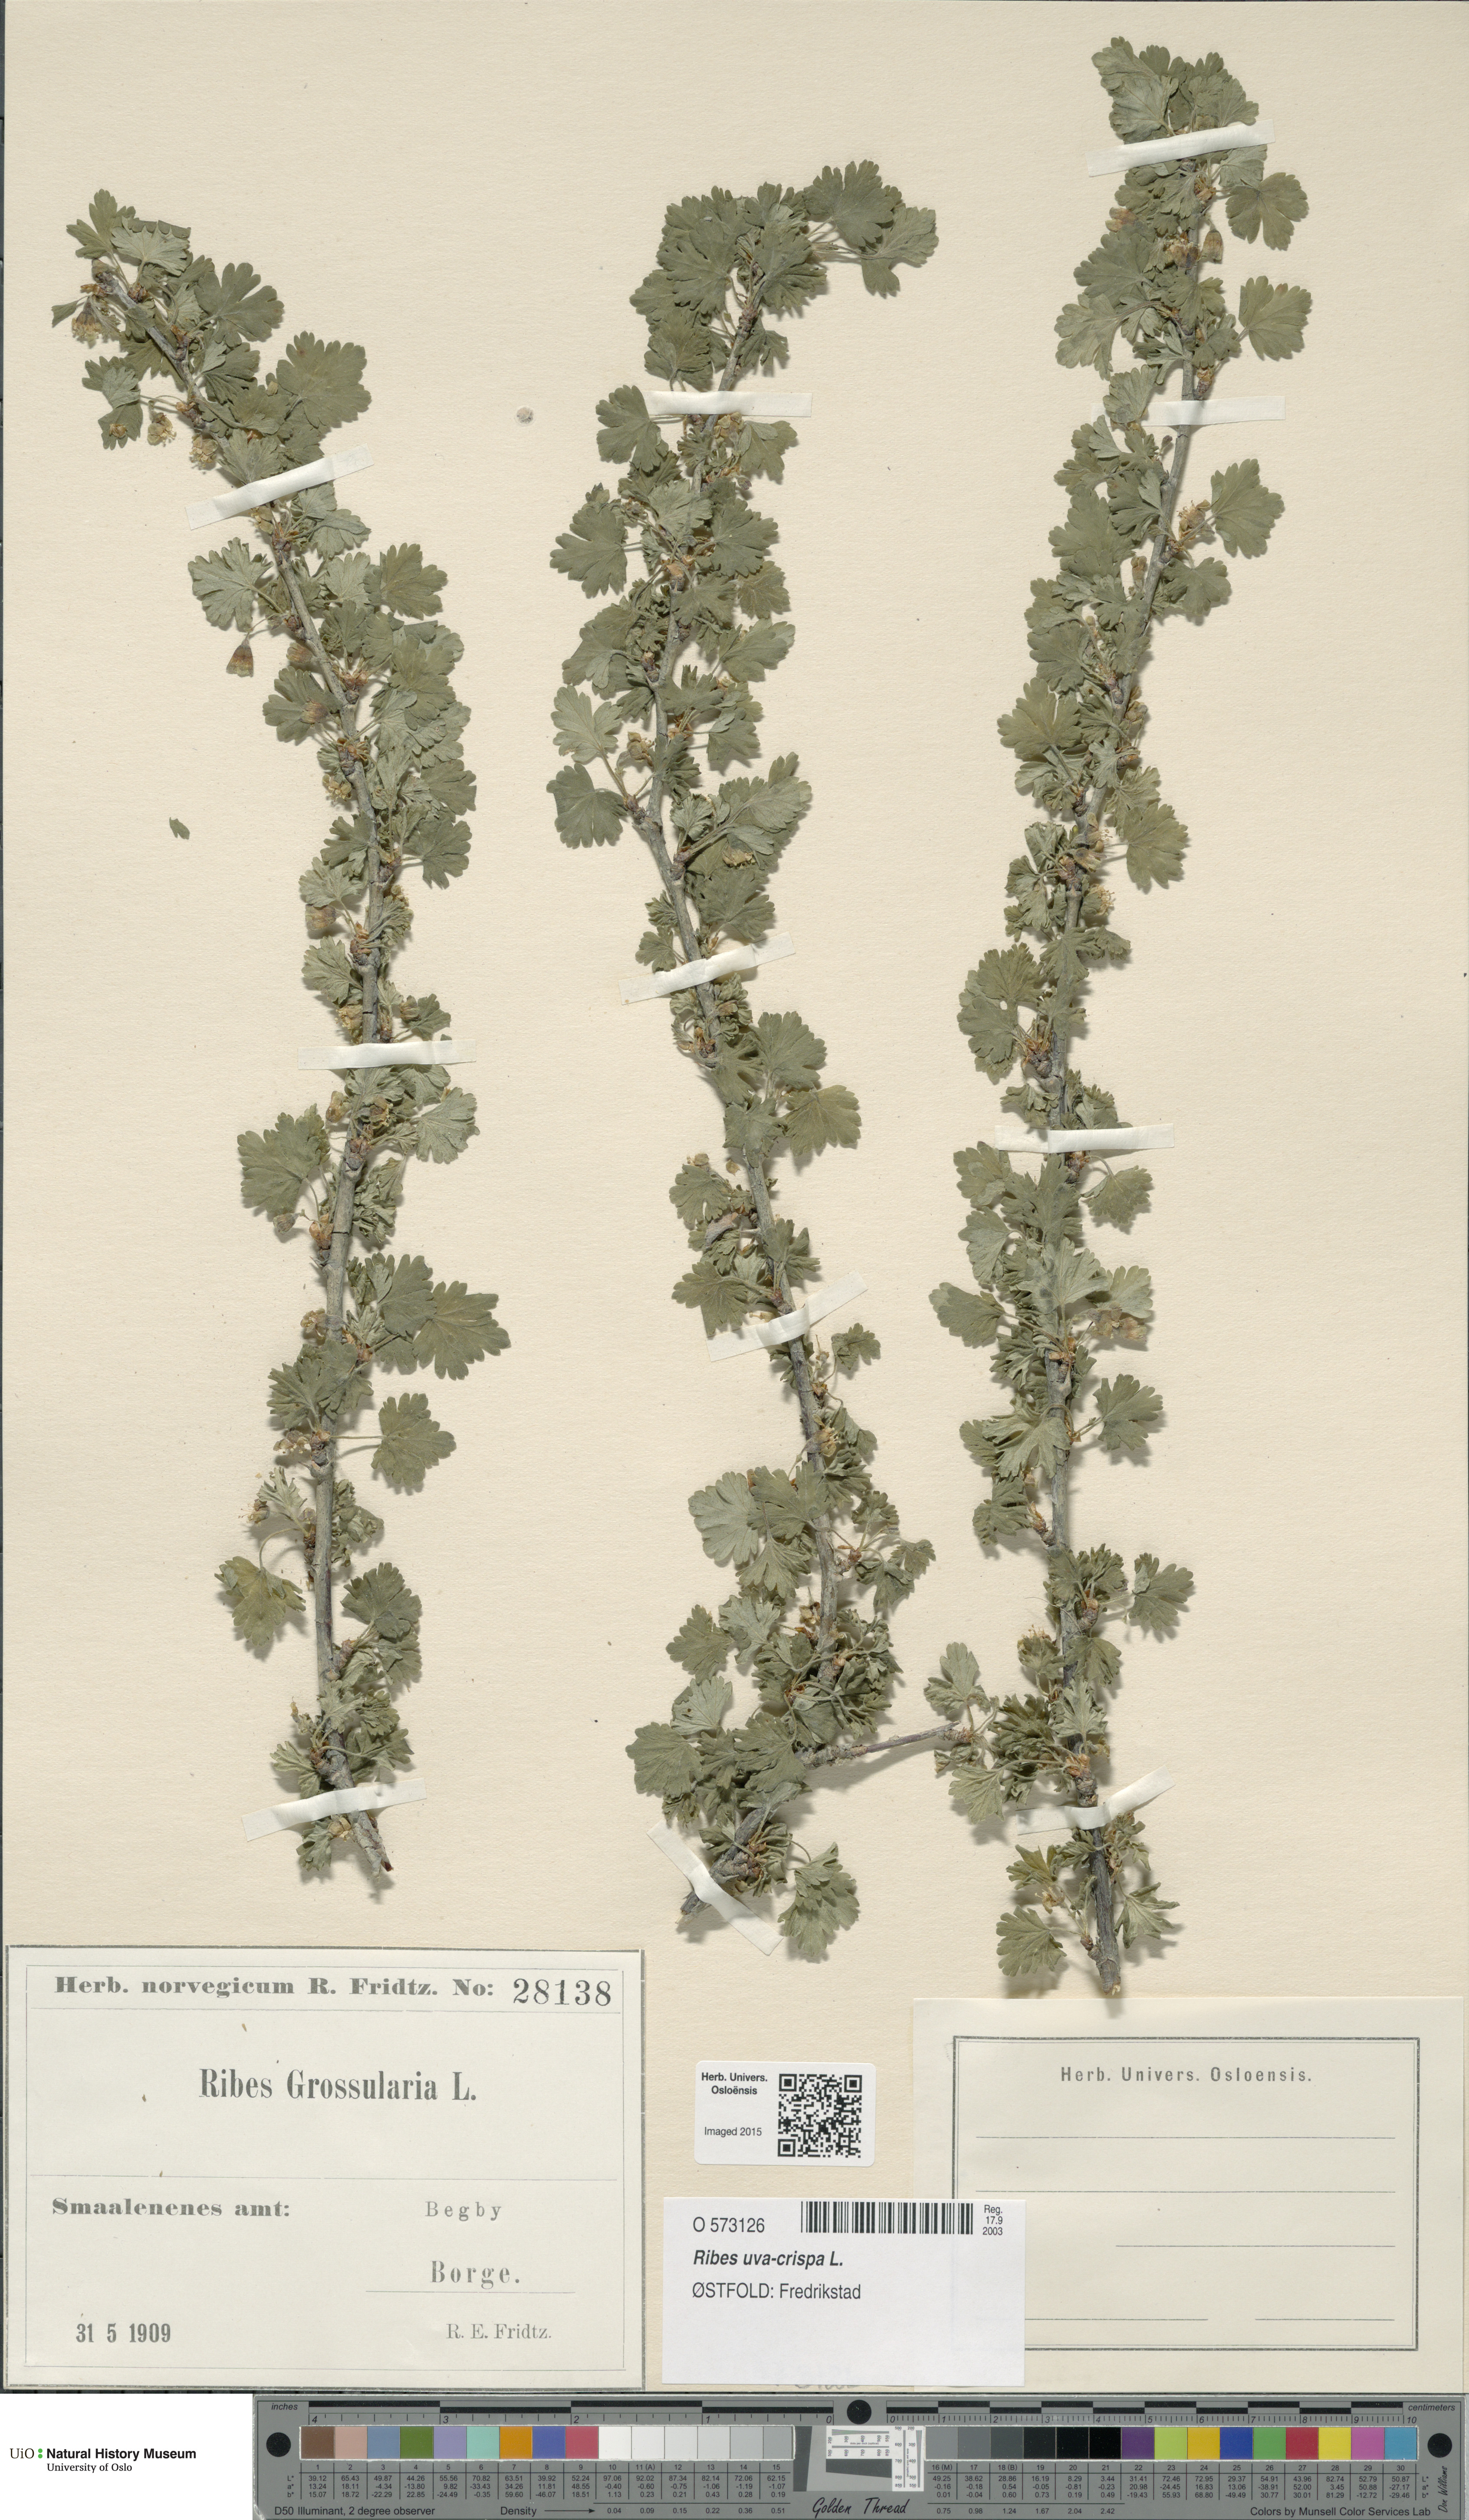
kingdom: Plantae
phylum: Tracheophyta
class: Magnoliopsida
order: Saxifragales
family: Grossulariaceae
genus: Ribes
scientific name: Ribes uva-crispa
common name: Gooseberry
